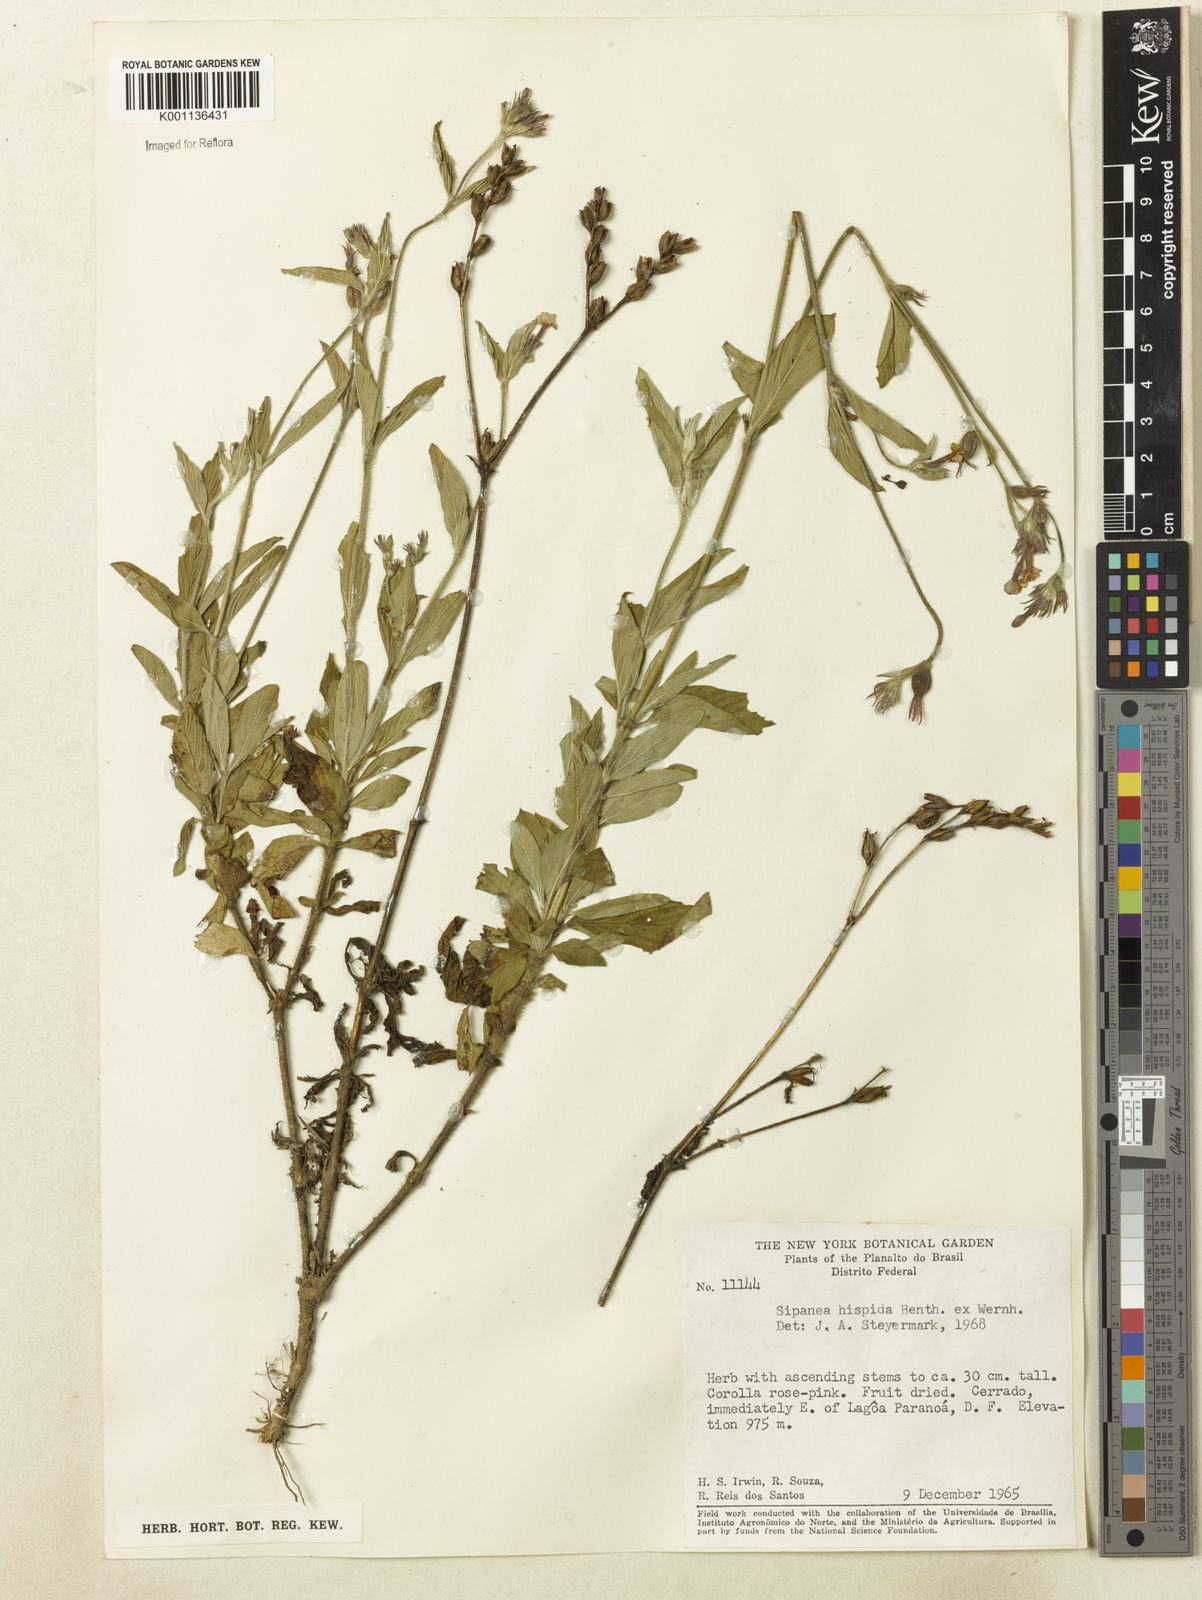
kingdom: Plantae
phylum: Tracheophyta
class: Magnoliopsida
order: Gentianales
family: Rubiaceae
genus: Sipanea
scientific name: Sipanea hispida
